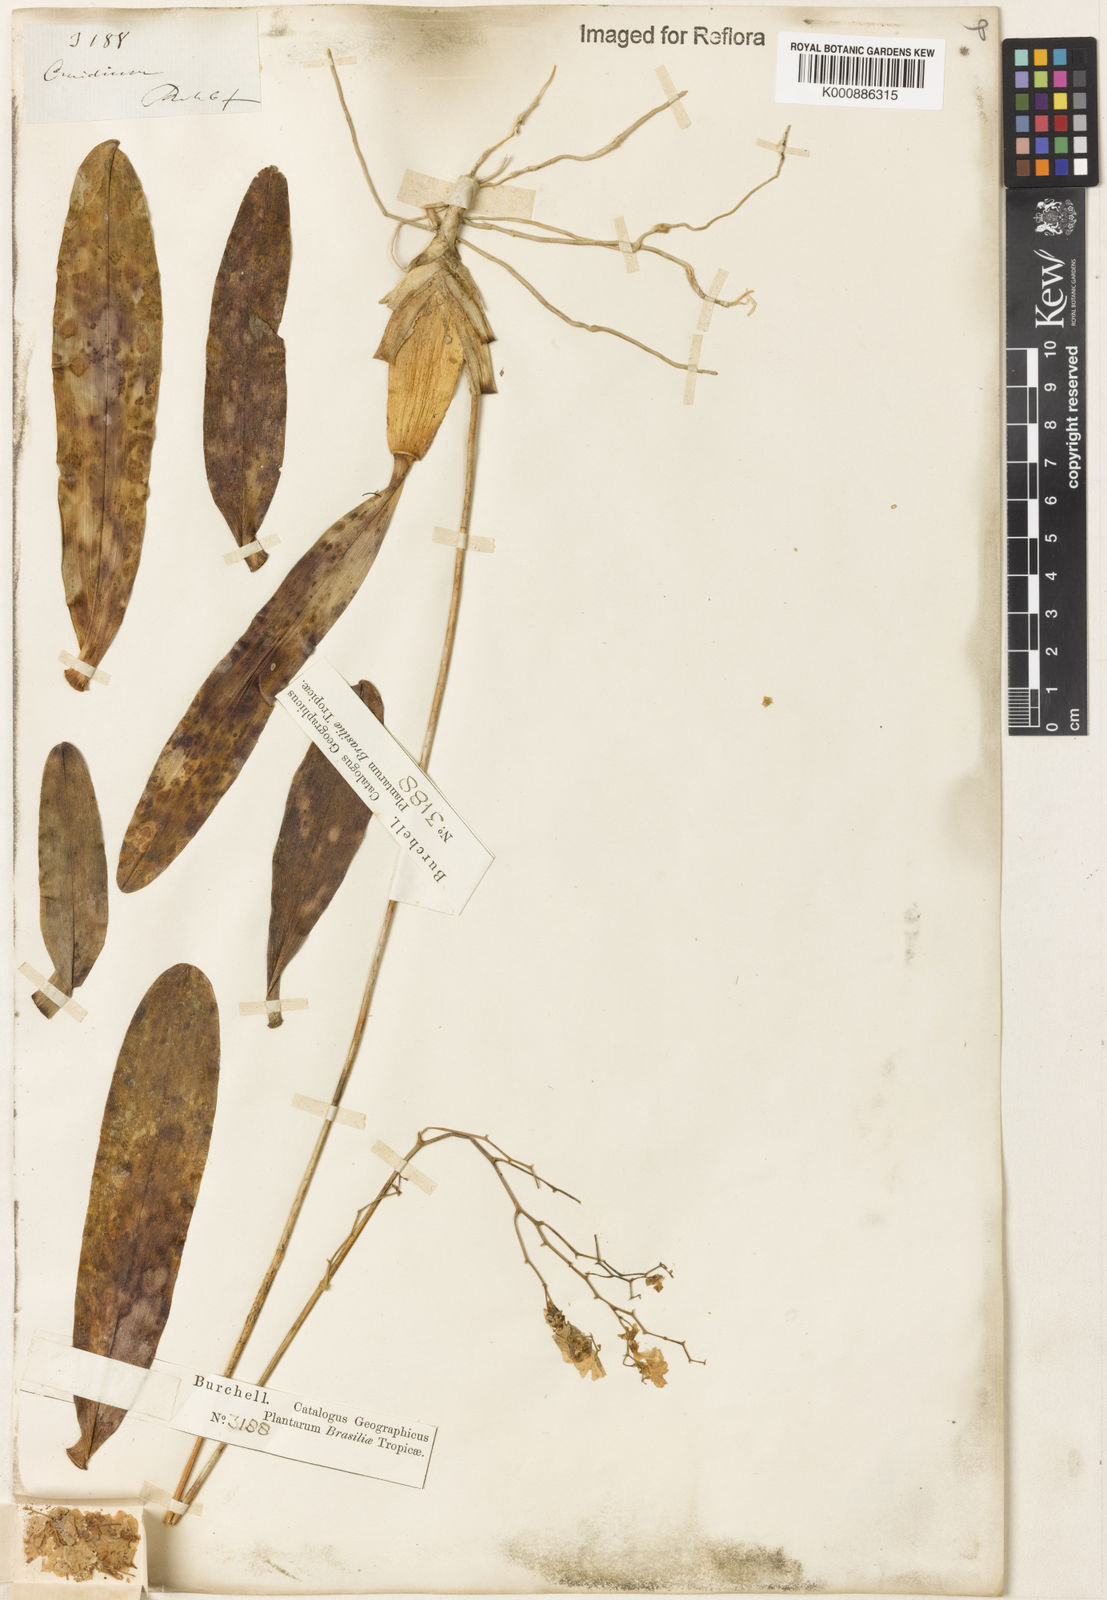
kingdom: Plantae
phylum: Tracheophyta
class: Liliopsida
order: Asparagales
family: Orchidaceae
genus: Gomesa
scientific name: Gomesa flexuosa
